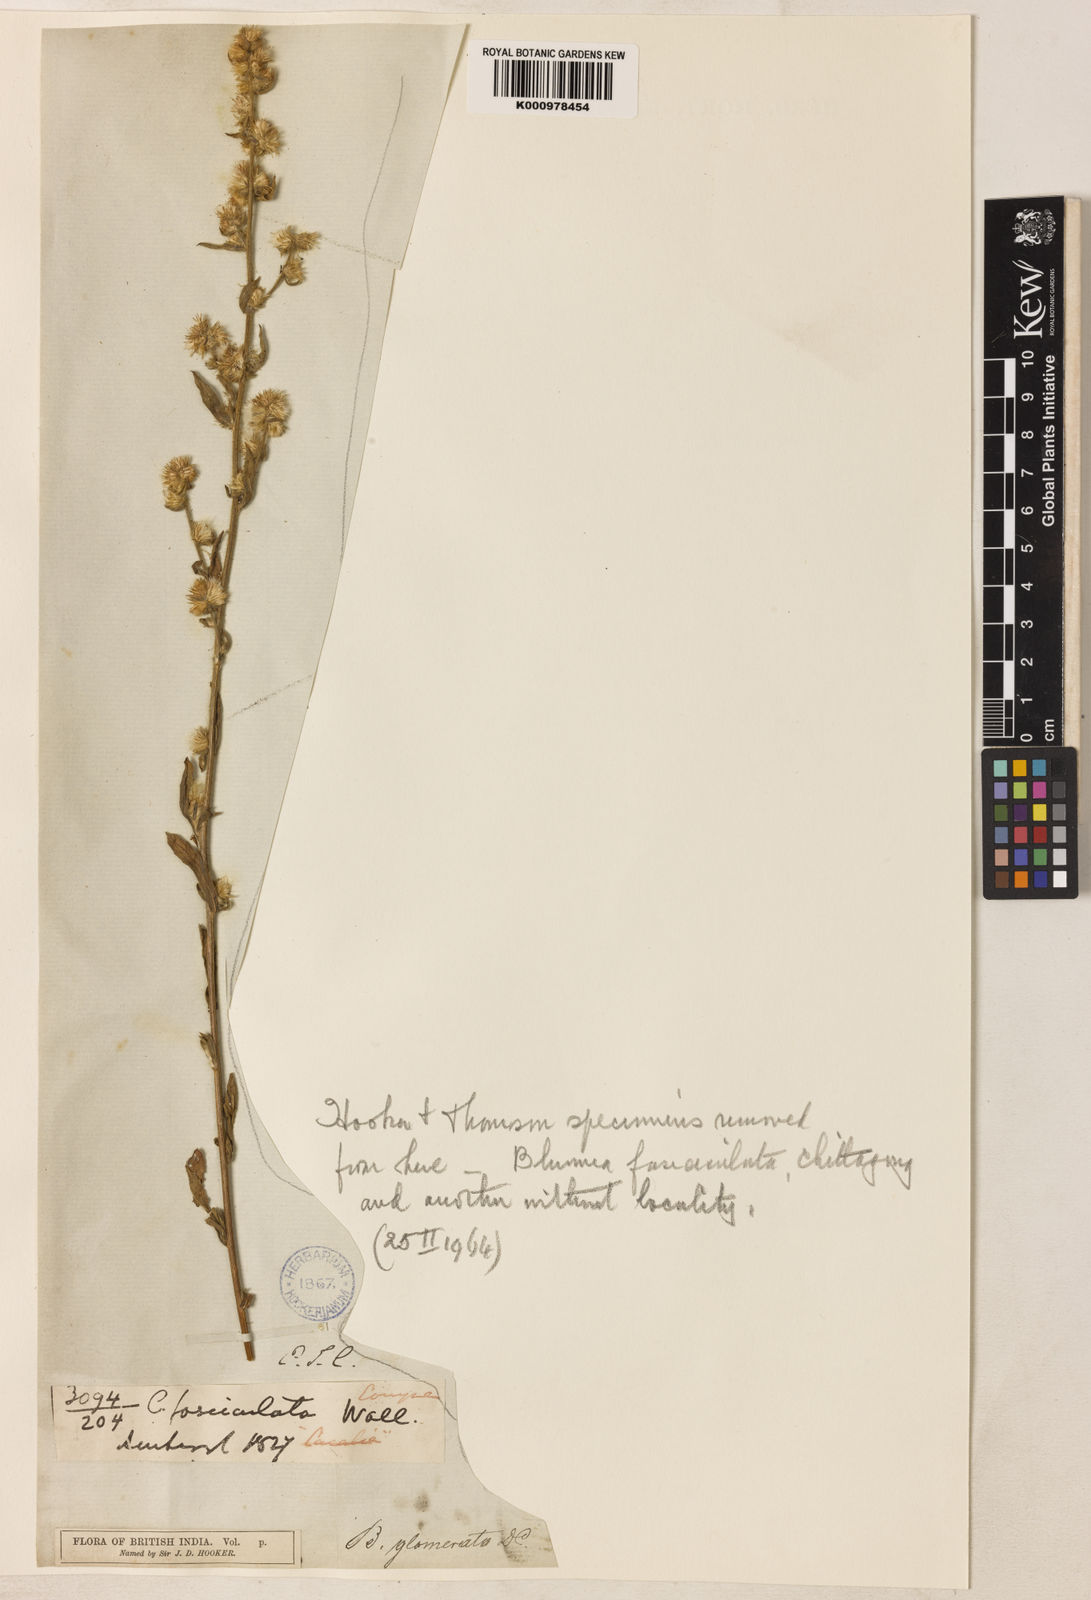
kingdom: Plantae
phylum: Tracheophyta
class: Magnoliopsida
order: Asterales
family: Asteraceae
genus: Blumea
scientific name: Blumea fistulosa
